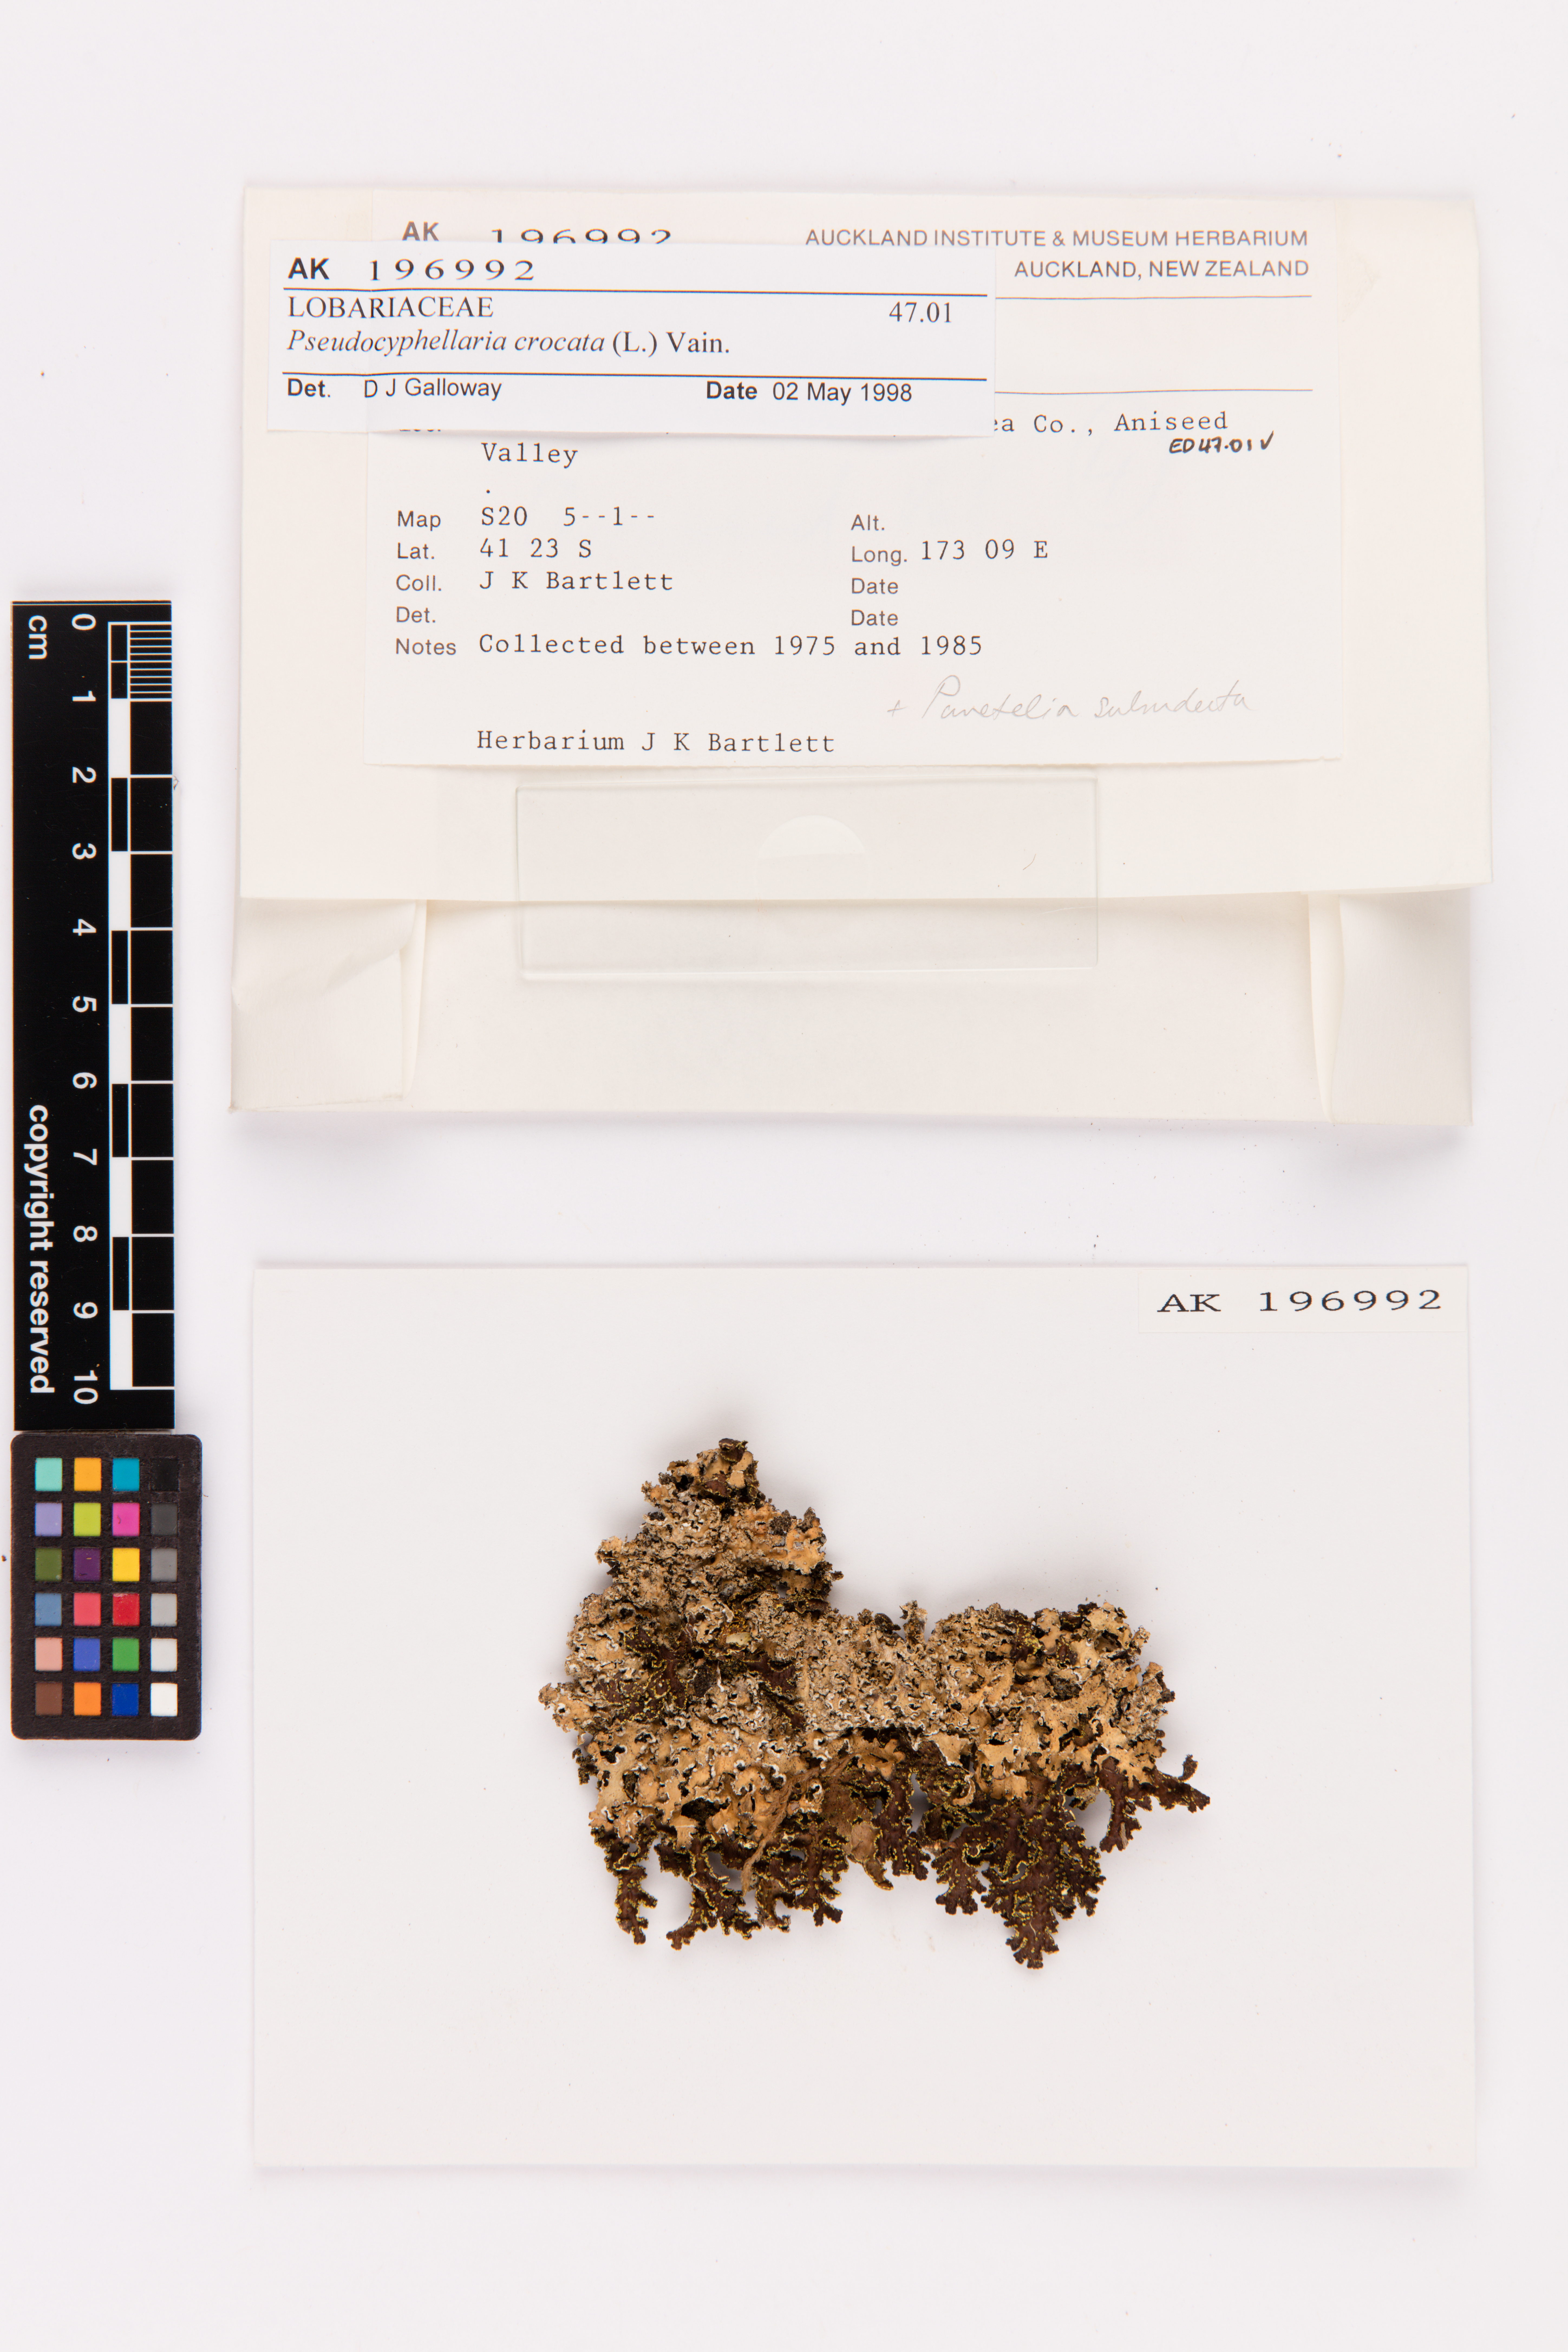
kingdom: Fungi
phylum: Ascomycota
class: Lecanoromycetes
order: Peltigerales
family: Lobariaceae
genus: Pseudocyphellaria
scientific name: Pseudocyphellaria crocata
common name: Golden specklebelly
